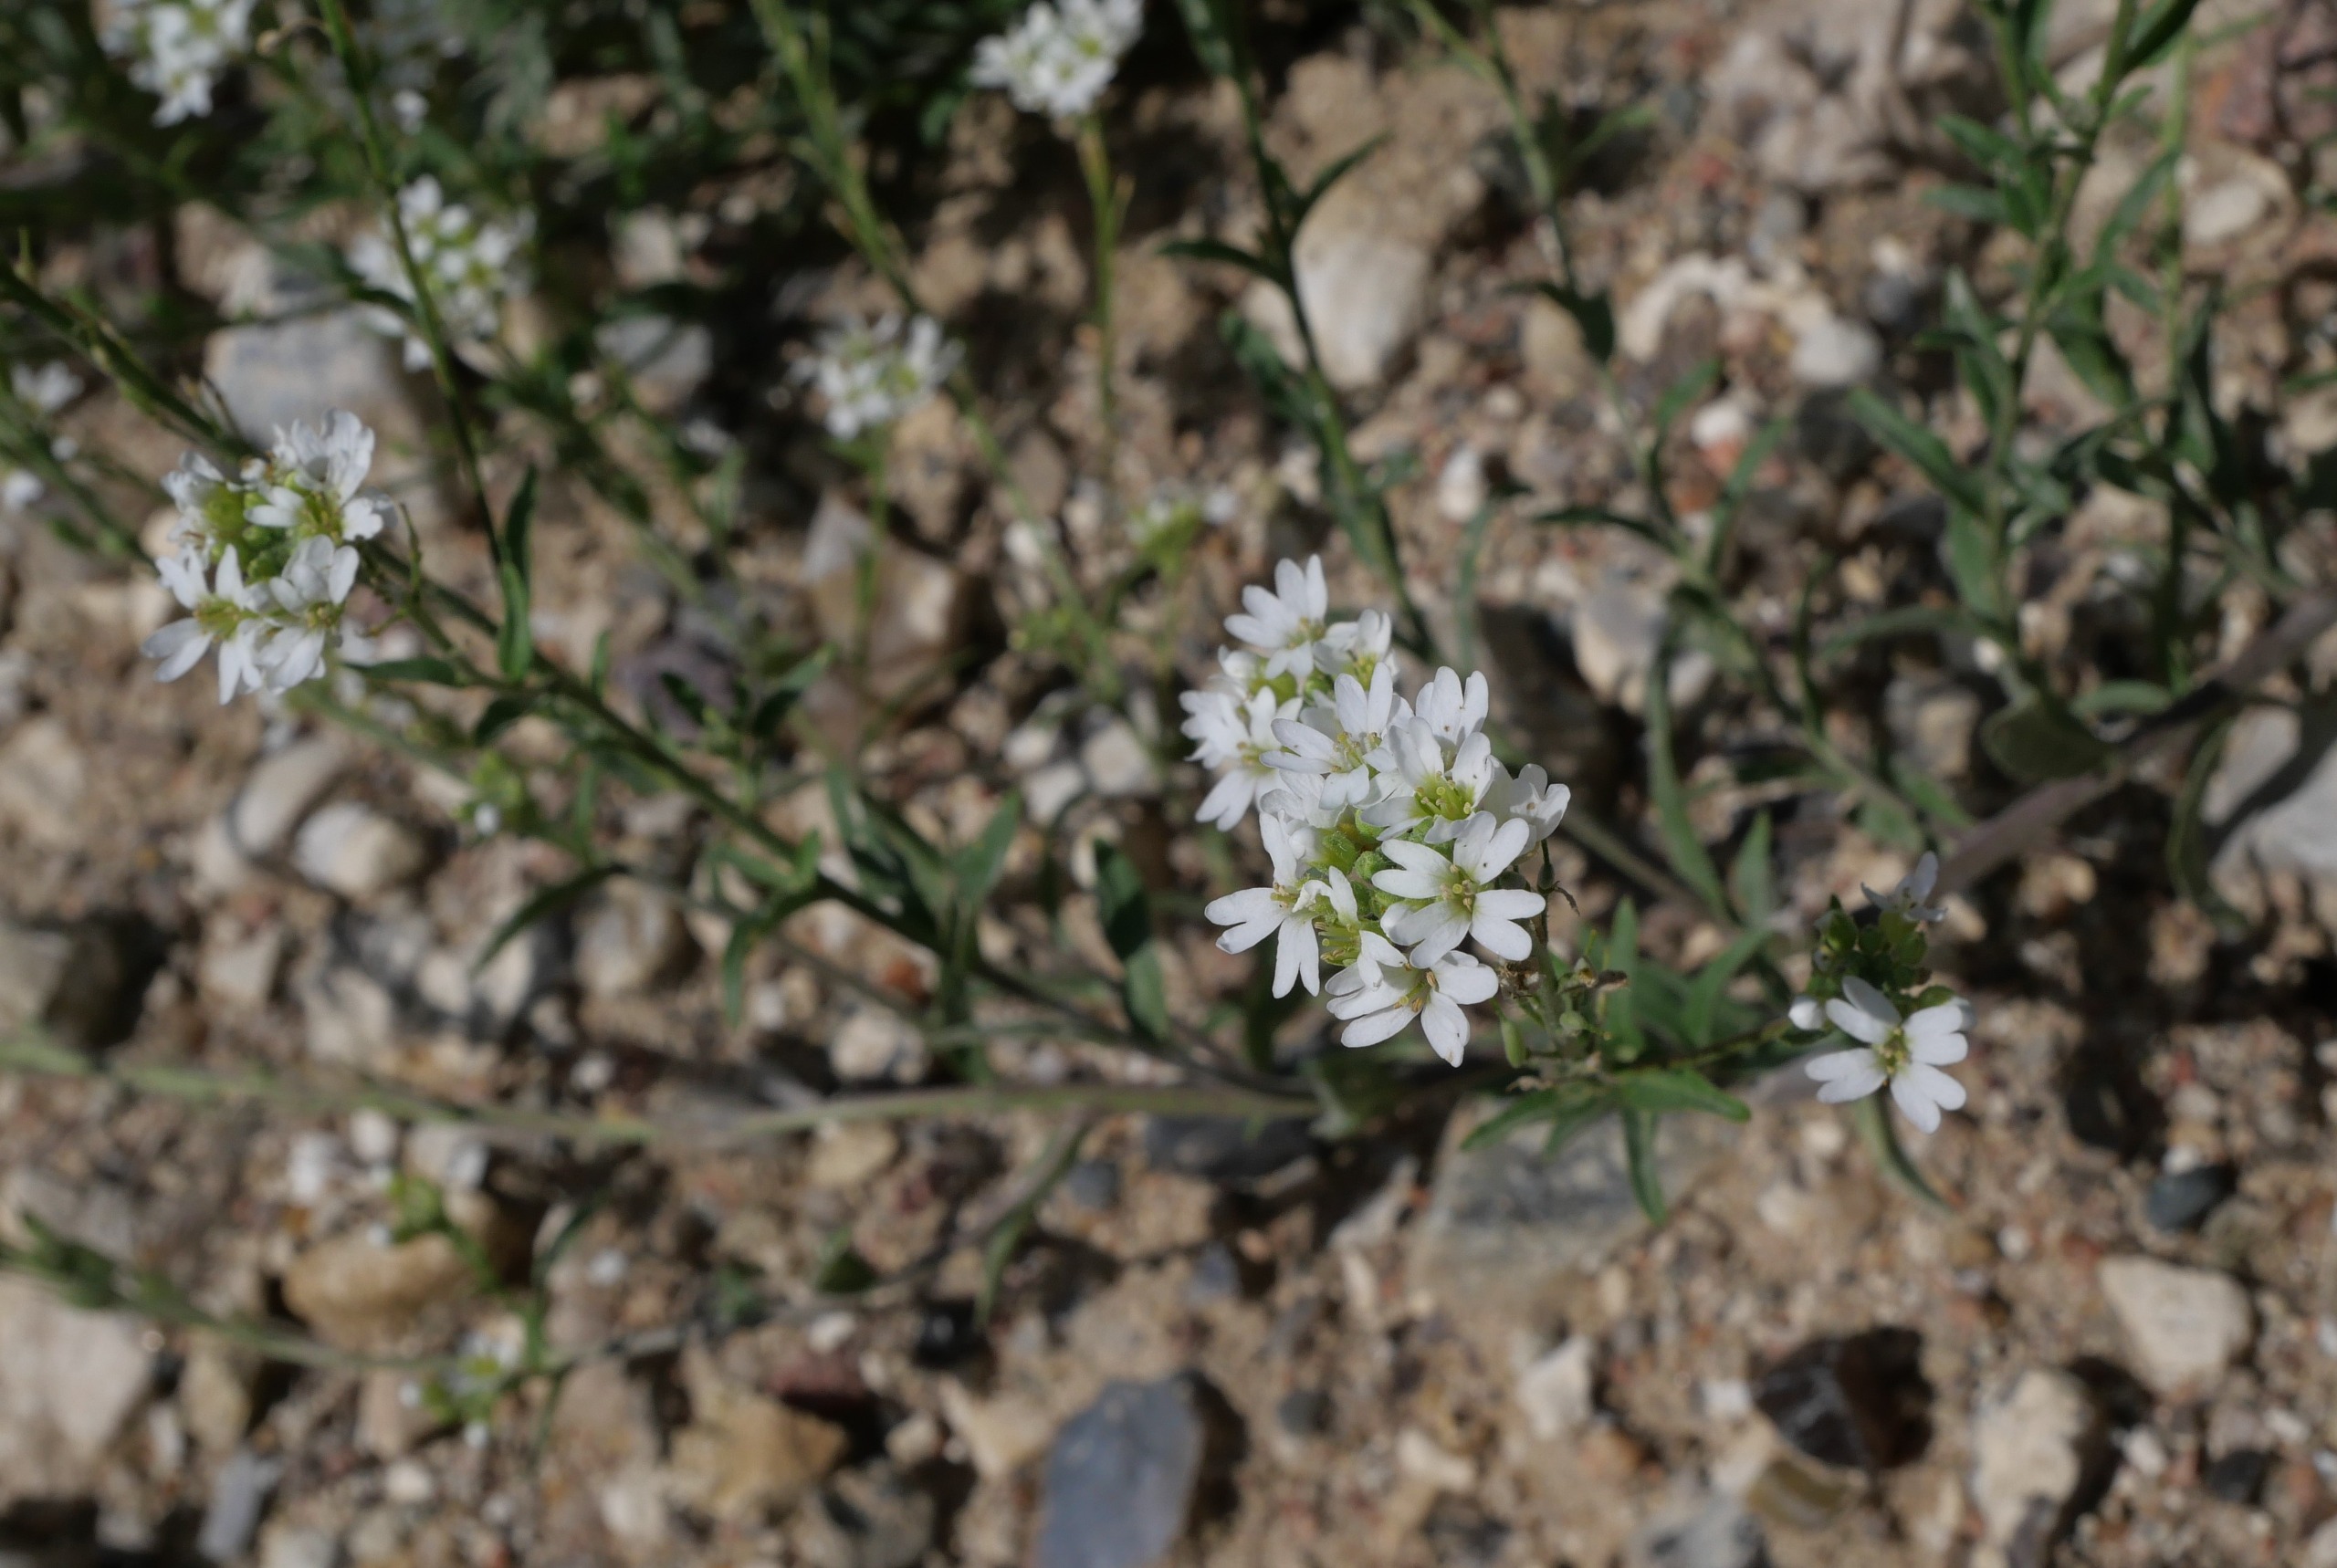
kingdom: Plantae
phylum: Tracheophyta
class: Magnoliopsida
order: Brassicales
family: Brassicaceae
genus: Berteroa
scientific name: Berteroa incana
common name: Kløvplade
